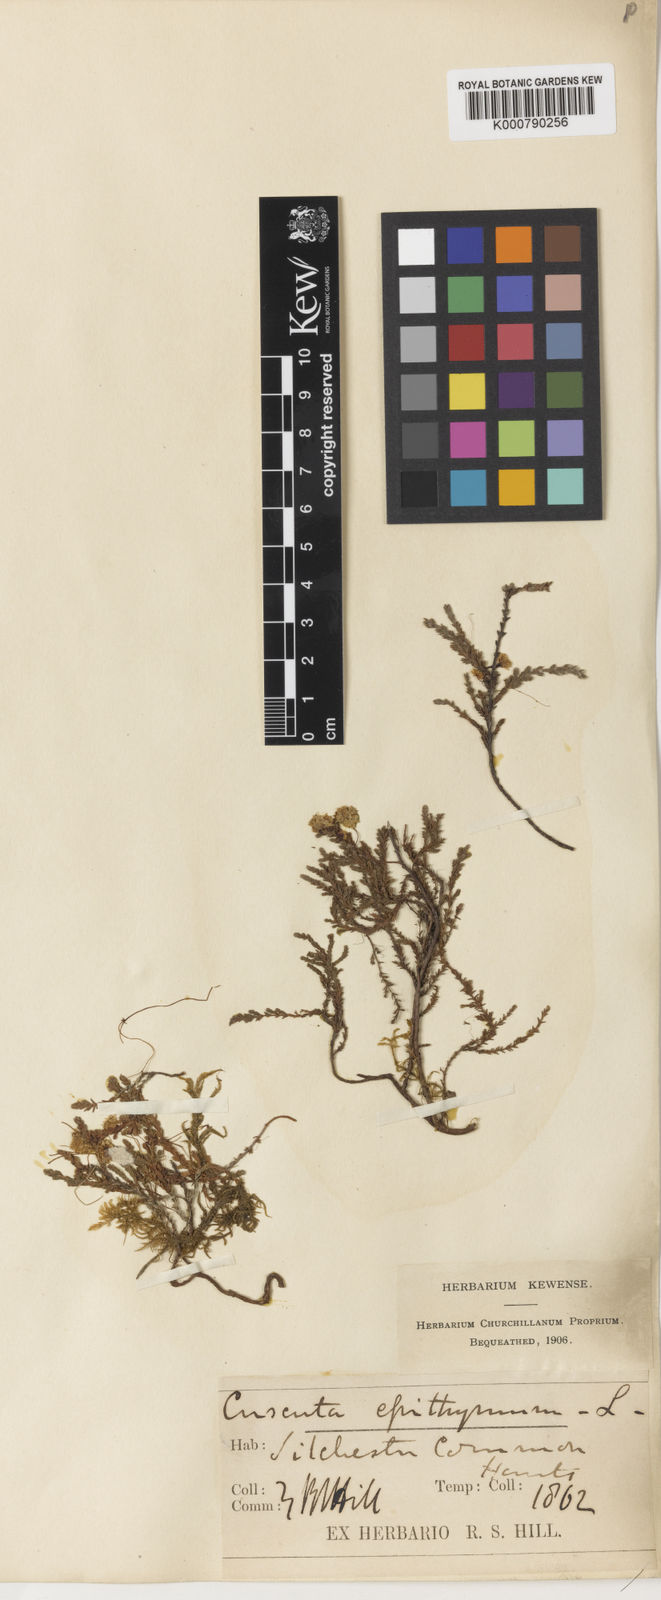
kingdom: Plantae
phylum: Tracheophyta
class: Magnoliopsida
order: Solanales
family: Convolvulaceae
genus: Cuscuta
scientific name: Cuscuta epithymum
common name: Clover dodder
